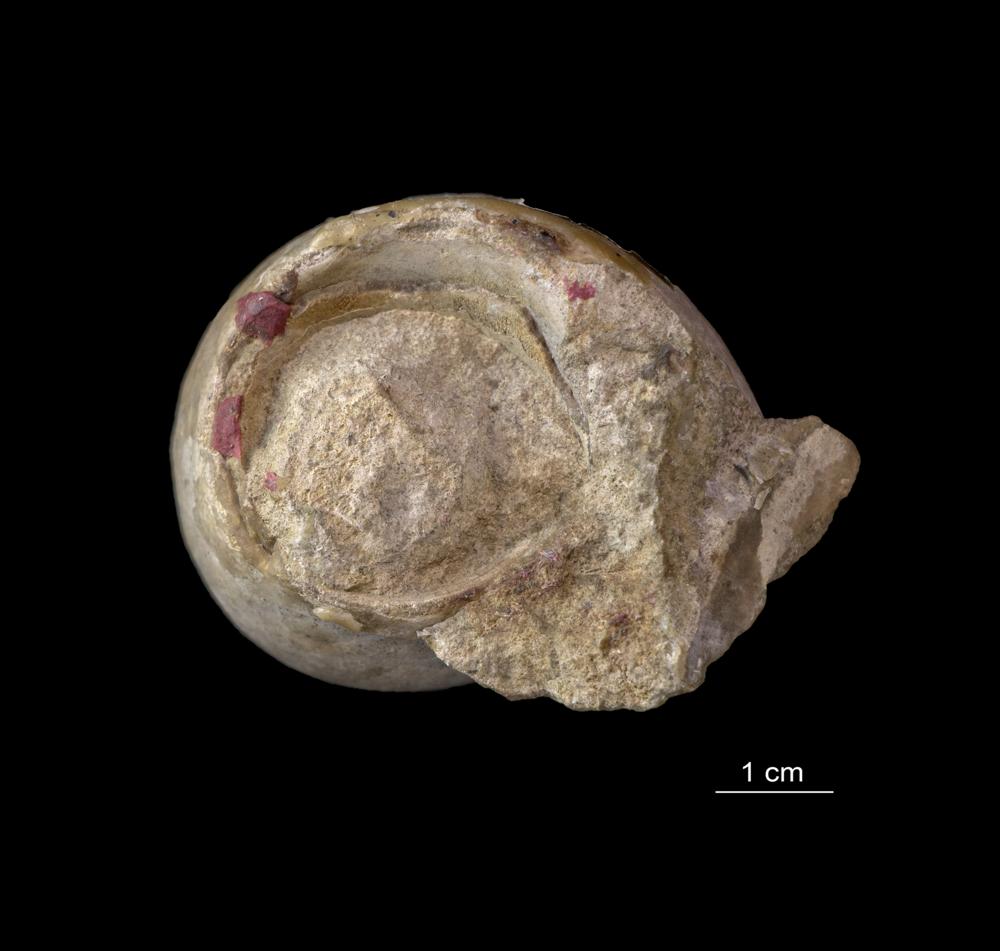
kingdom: Animalia
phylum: Mollusca
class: Gastropoda
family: Lesueurillidae
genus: Mestoronema
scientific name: Mestoronema Euomphalus marginalis
